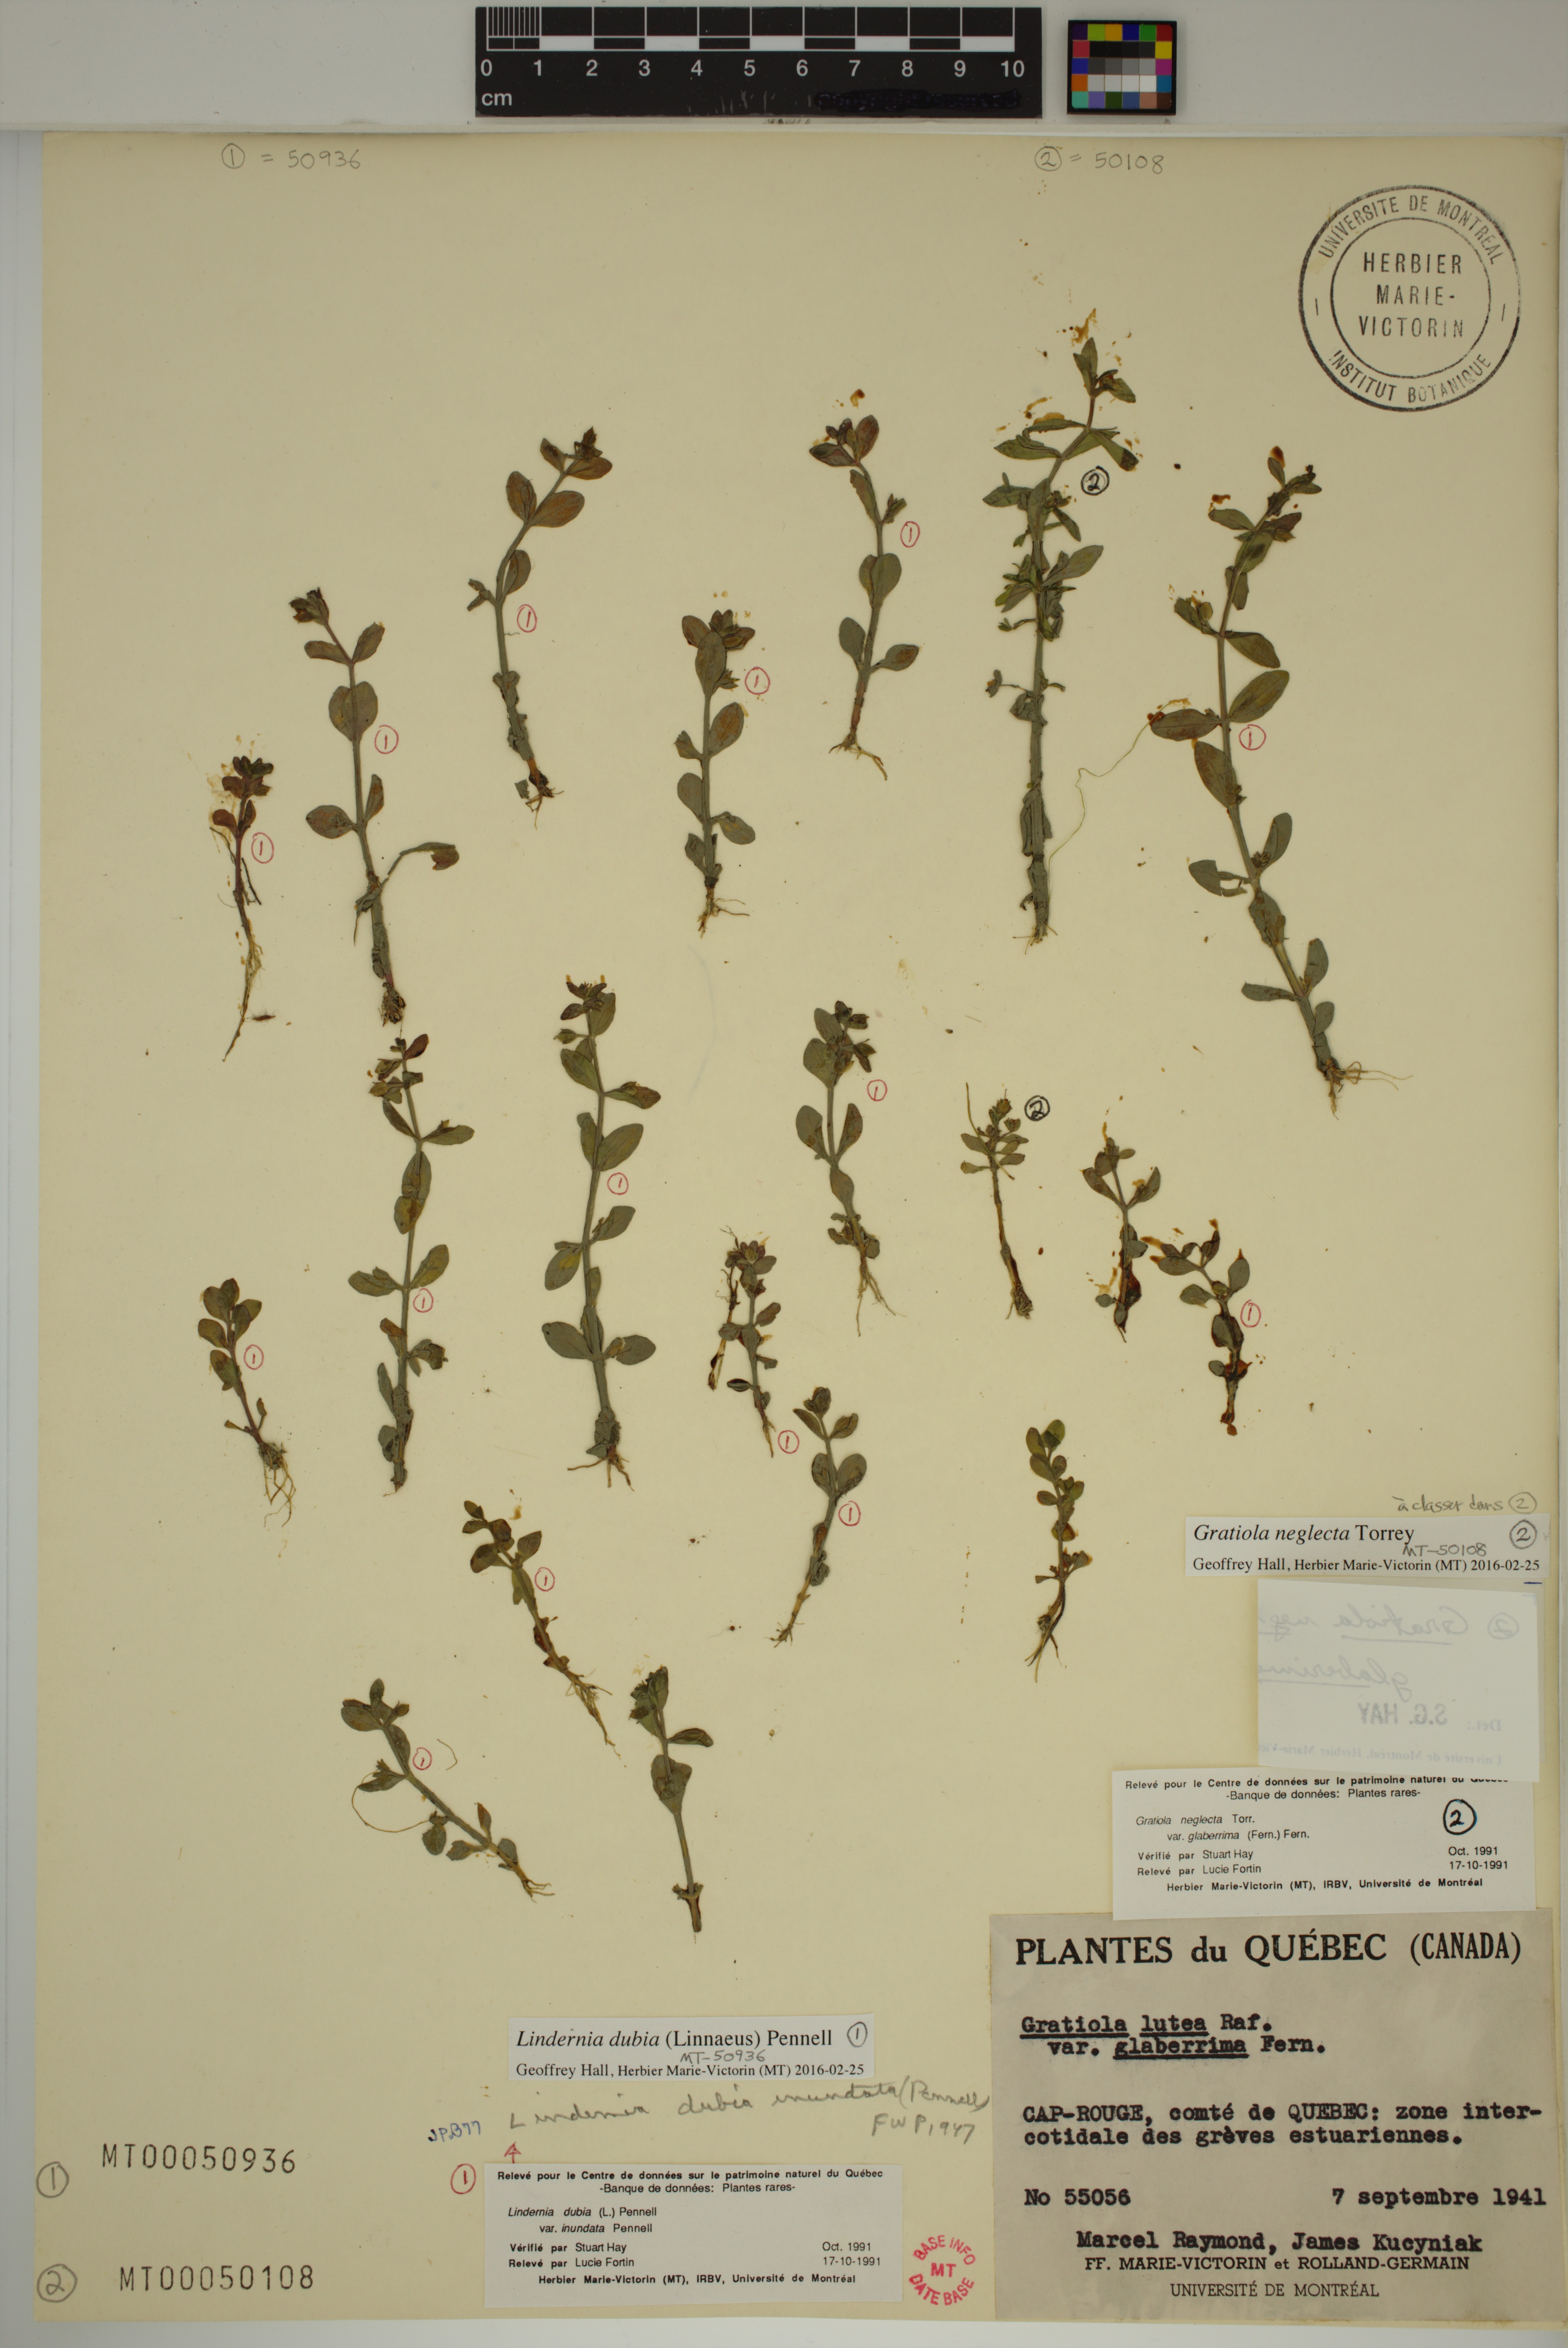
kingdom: Plantae
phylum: Tracheophyta
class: Magnoliopsida
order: Lamiales
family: Plantaginaceae
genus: Gratiola
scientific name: Gratiola neglecta
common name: American hedge-hyssop
